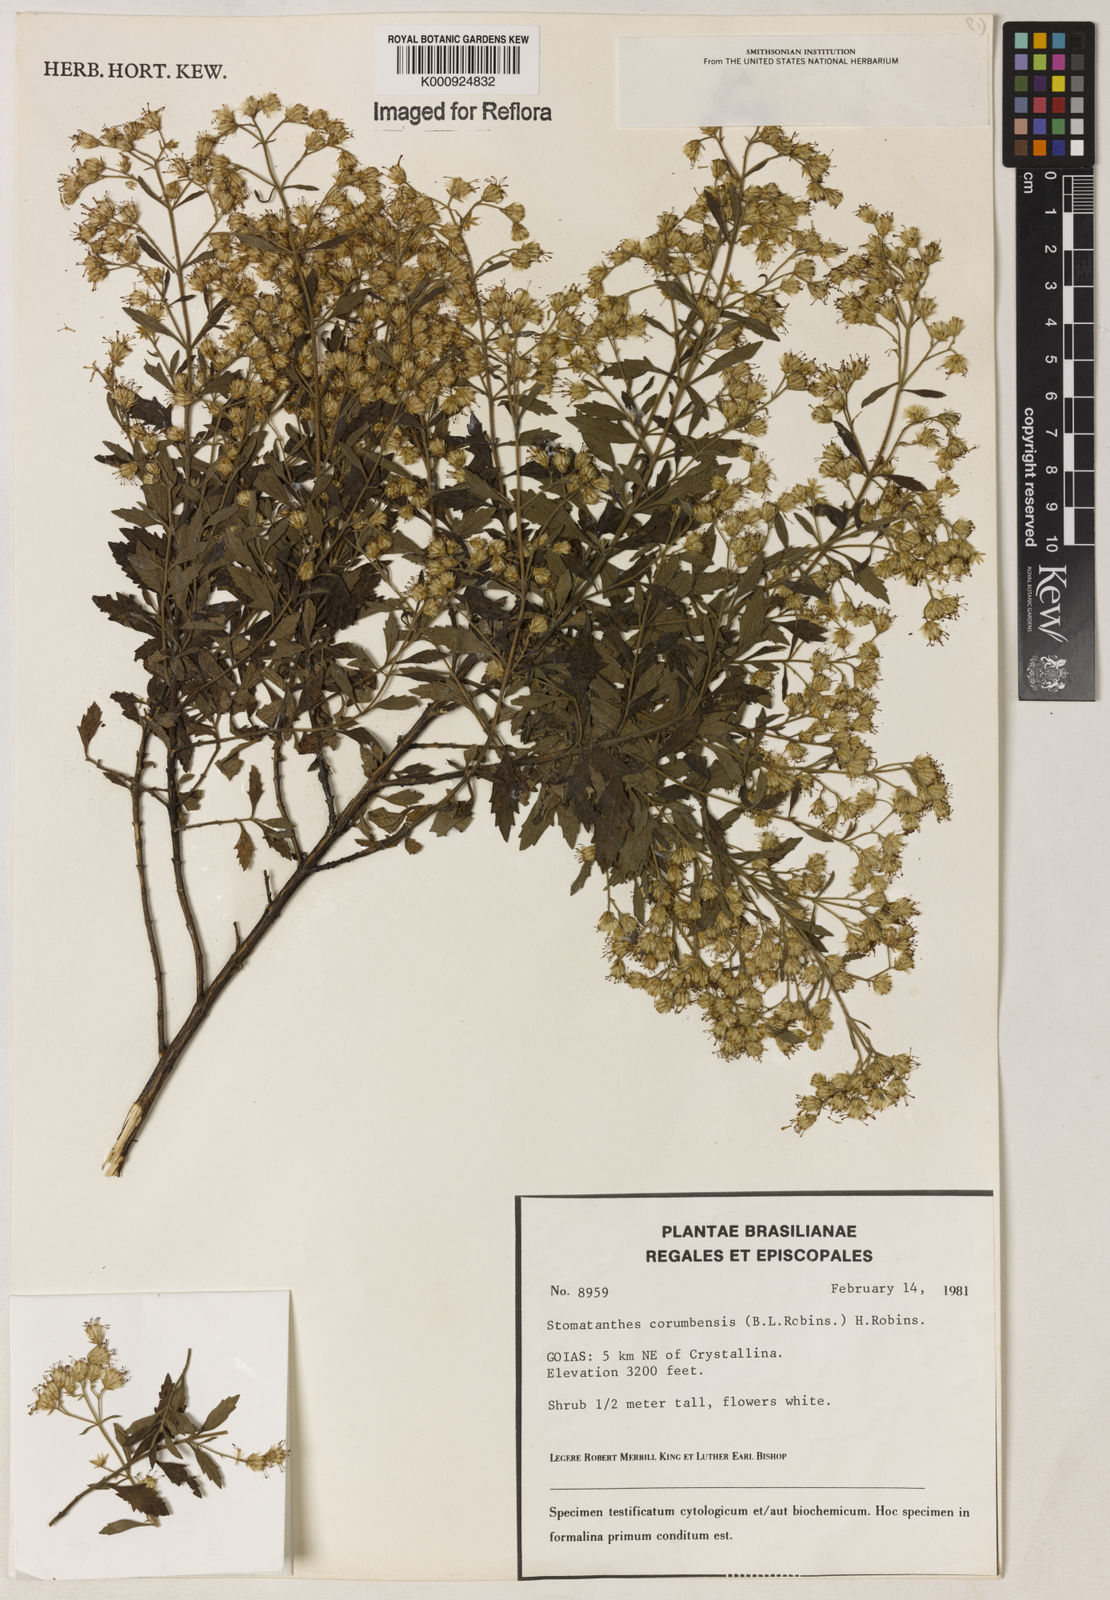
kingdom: Plantae
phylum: Tracheophyta
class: Magnoliopsida
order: Asterales
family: Asteraceae
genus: Stomatanthes
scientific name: Stomatanthes
